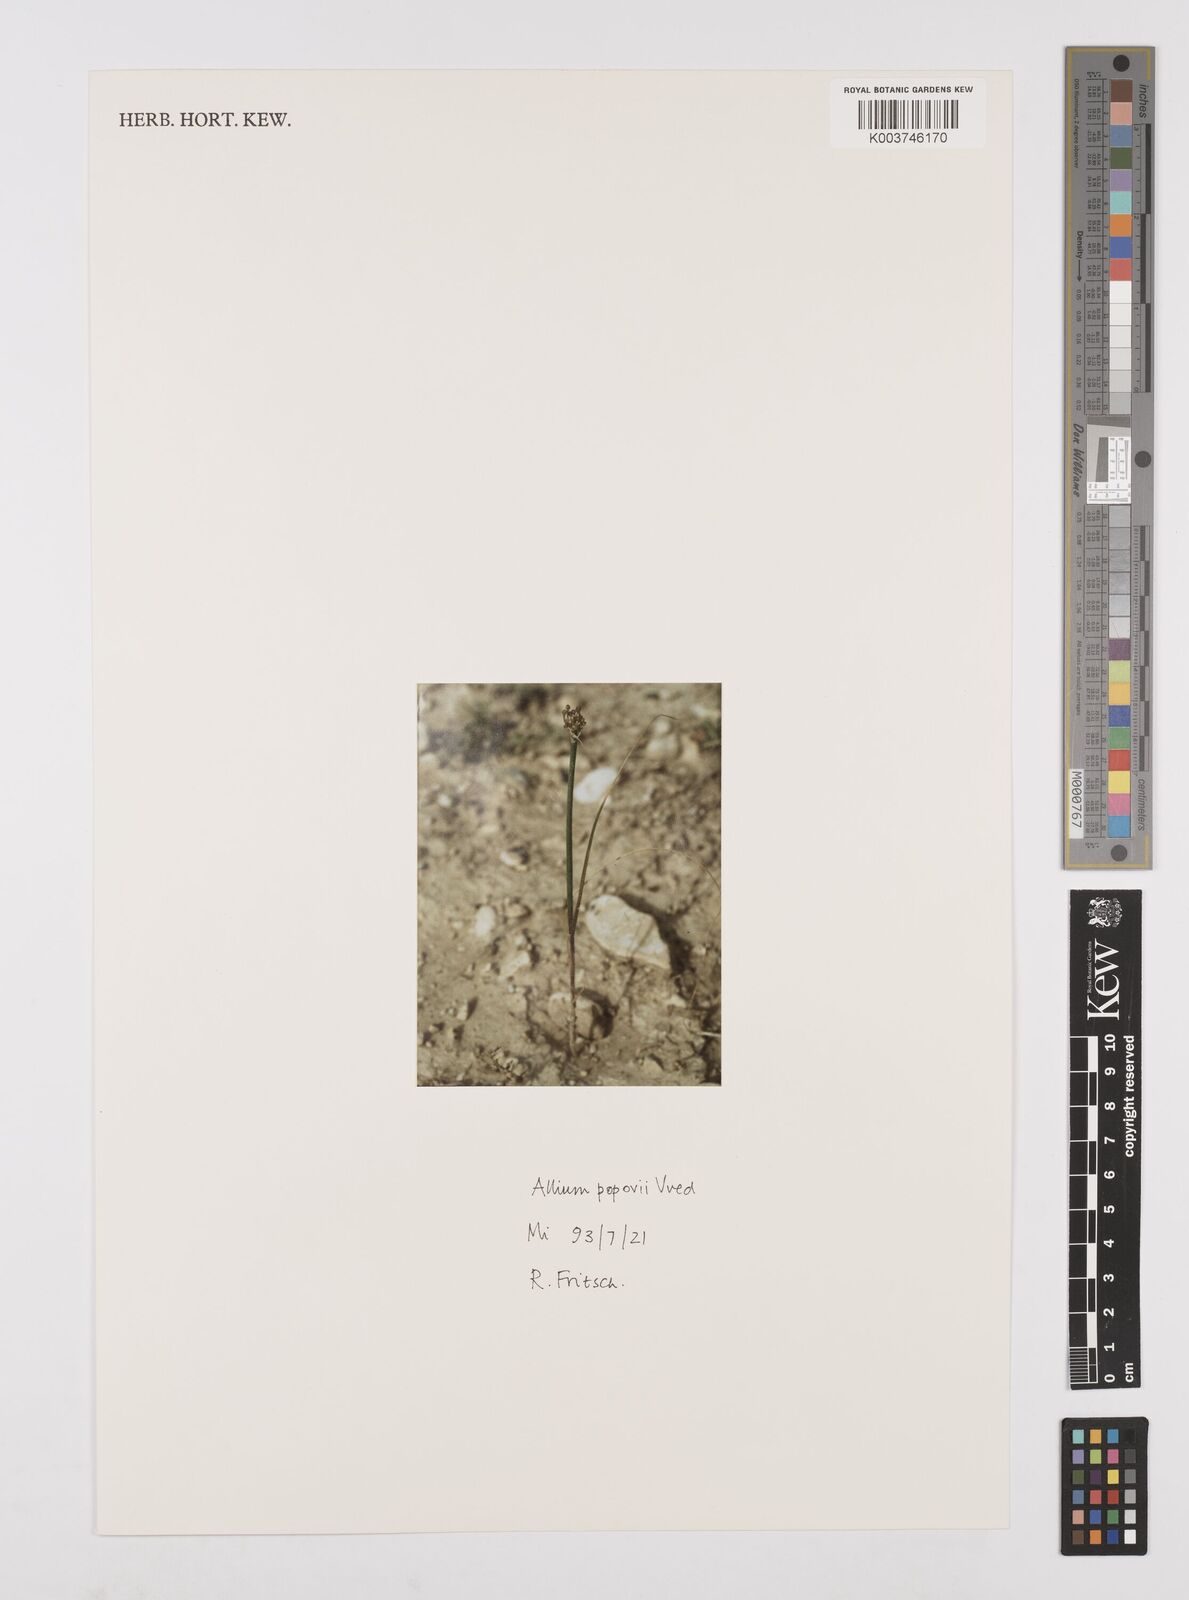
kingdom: Plantae
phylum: Tracheophyta
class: Liliopsida
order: Asparagales
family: Amaryllidaceae
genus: Allium
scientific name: Allium popovii
